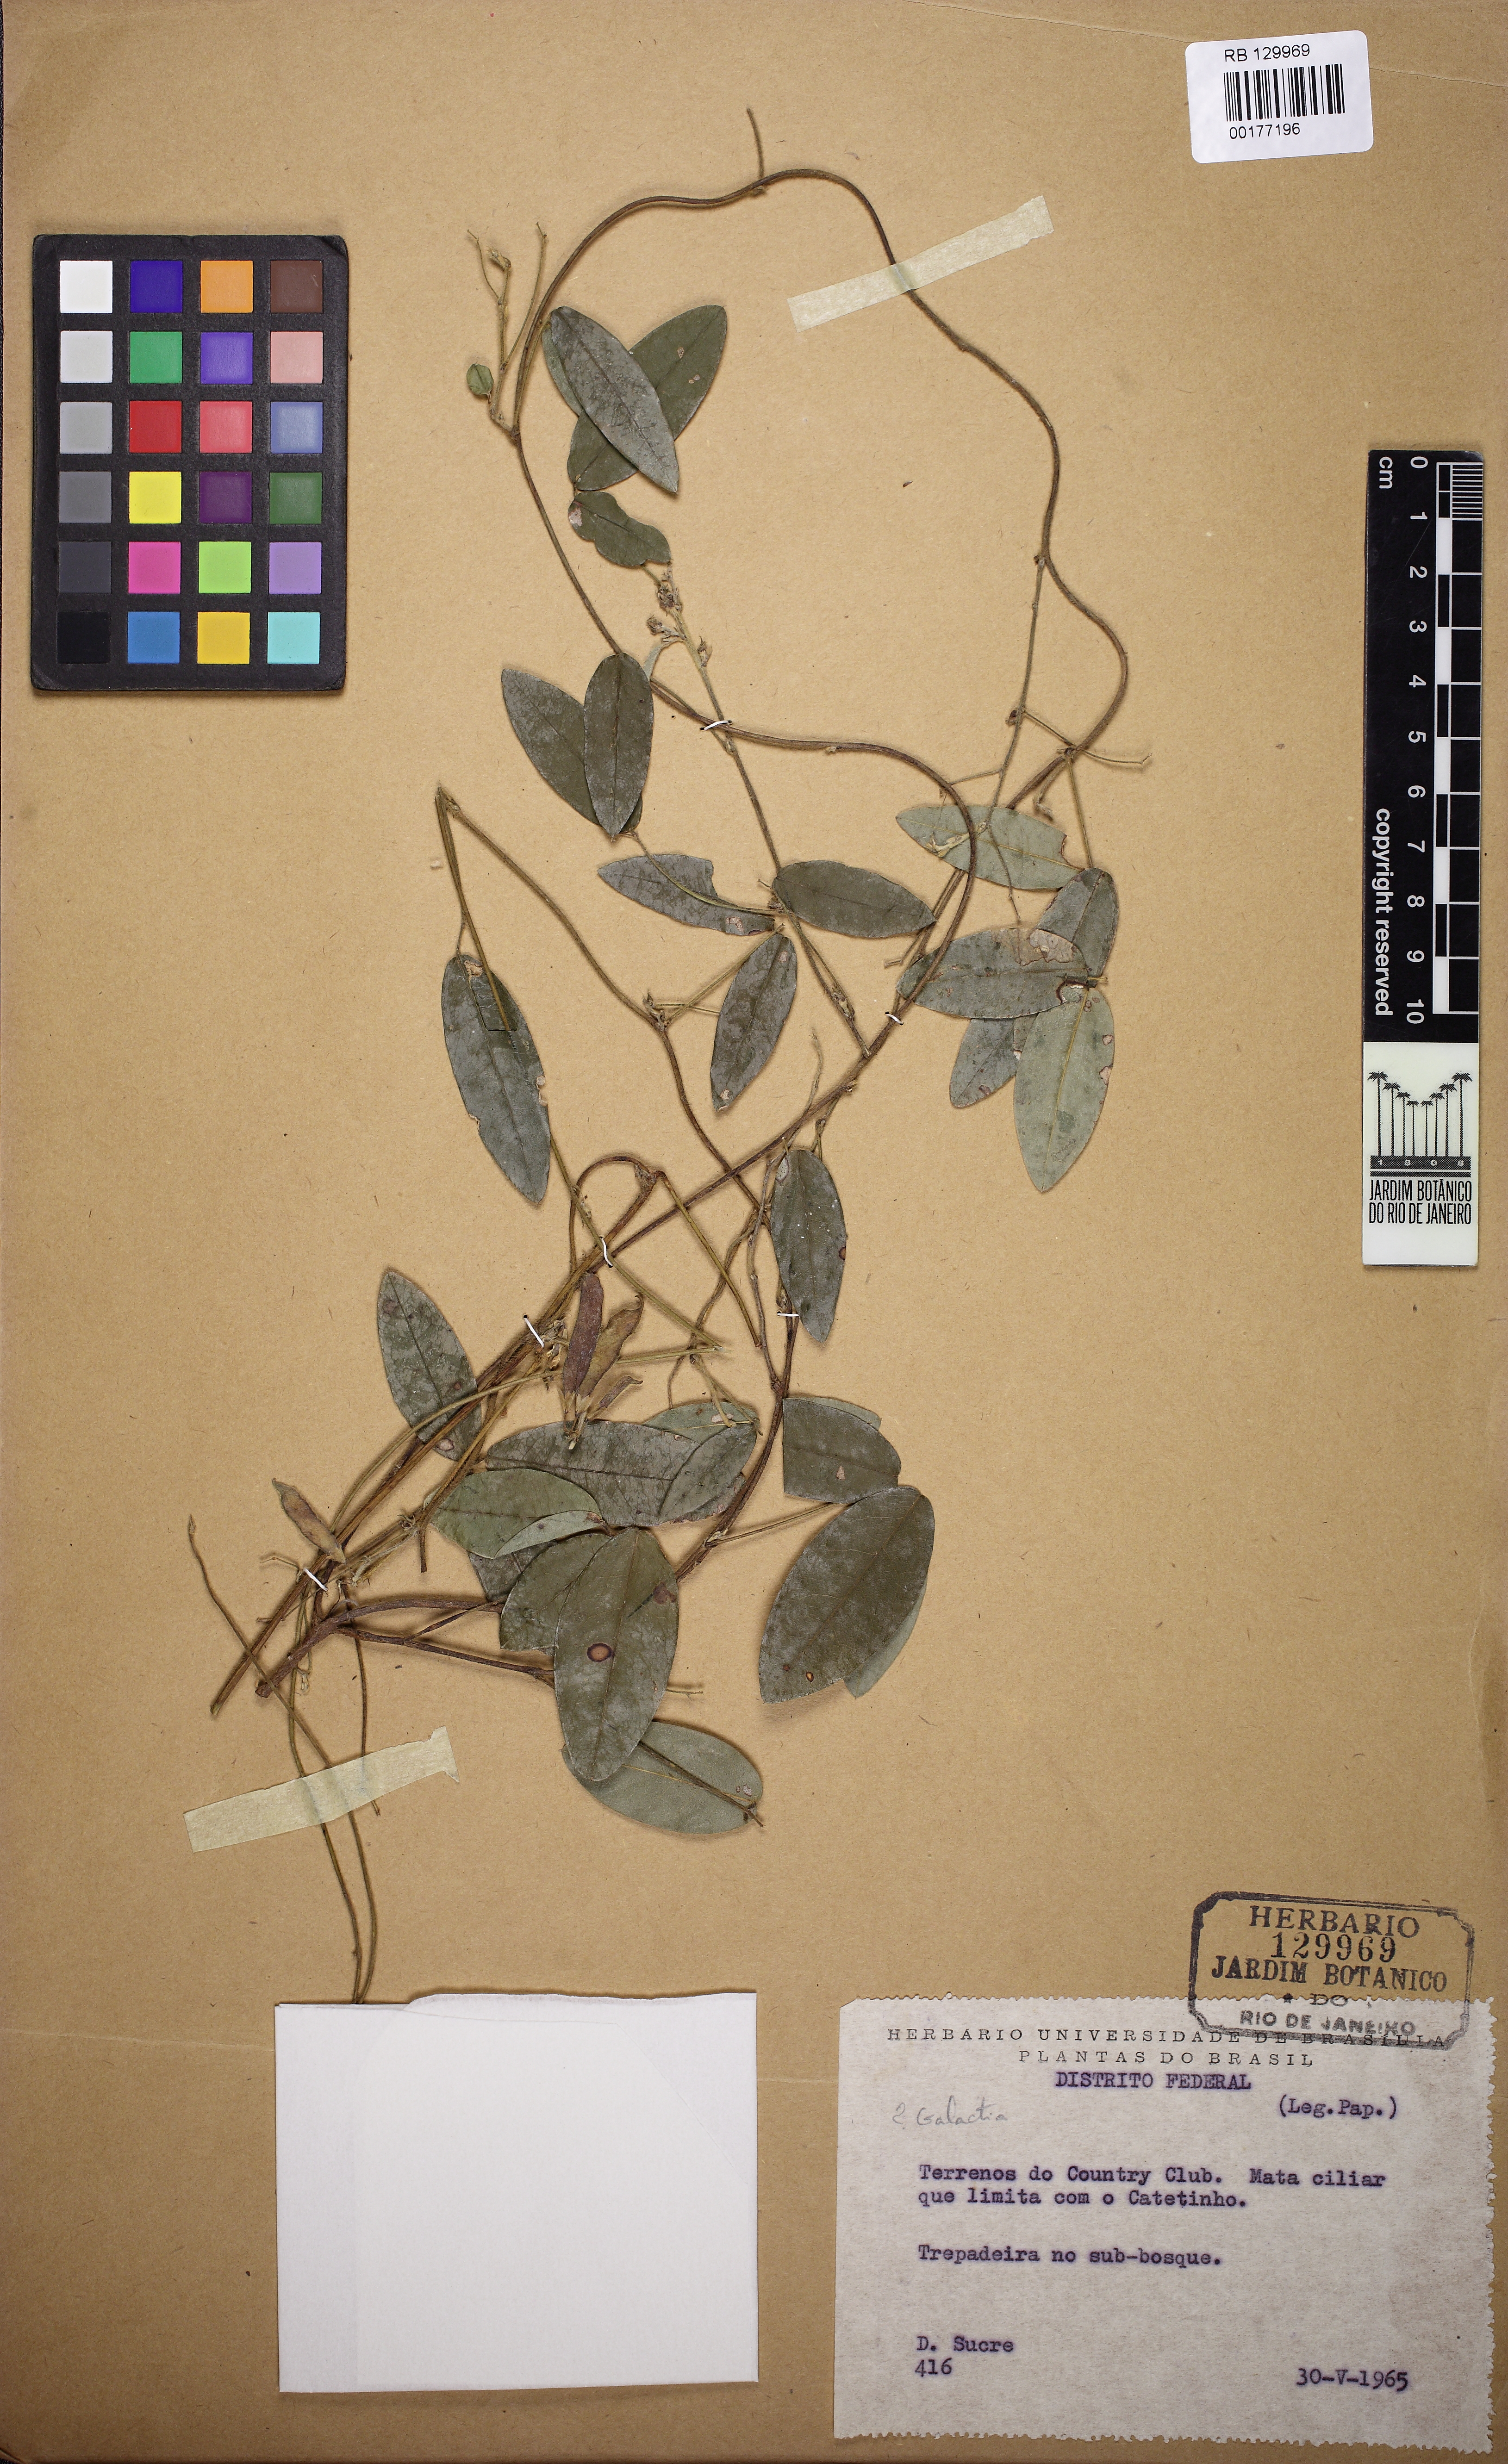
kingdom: Plantae
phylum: Tracheophyta
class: Magnoliopsida
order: Fabales
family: Fabaceae
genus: Galactia
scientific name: Galactia
